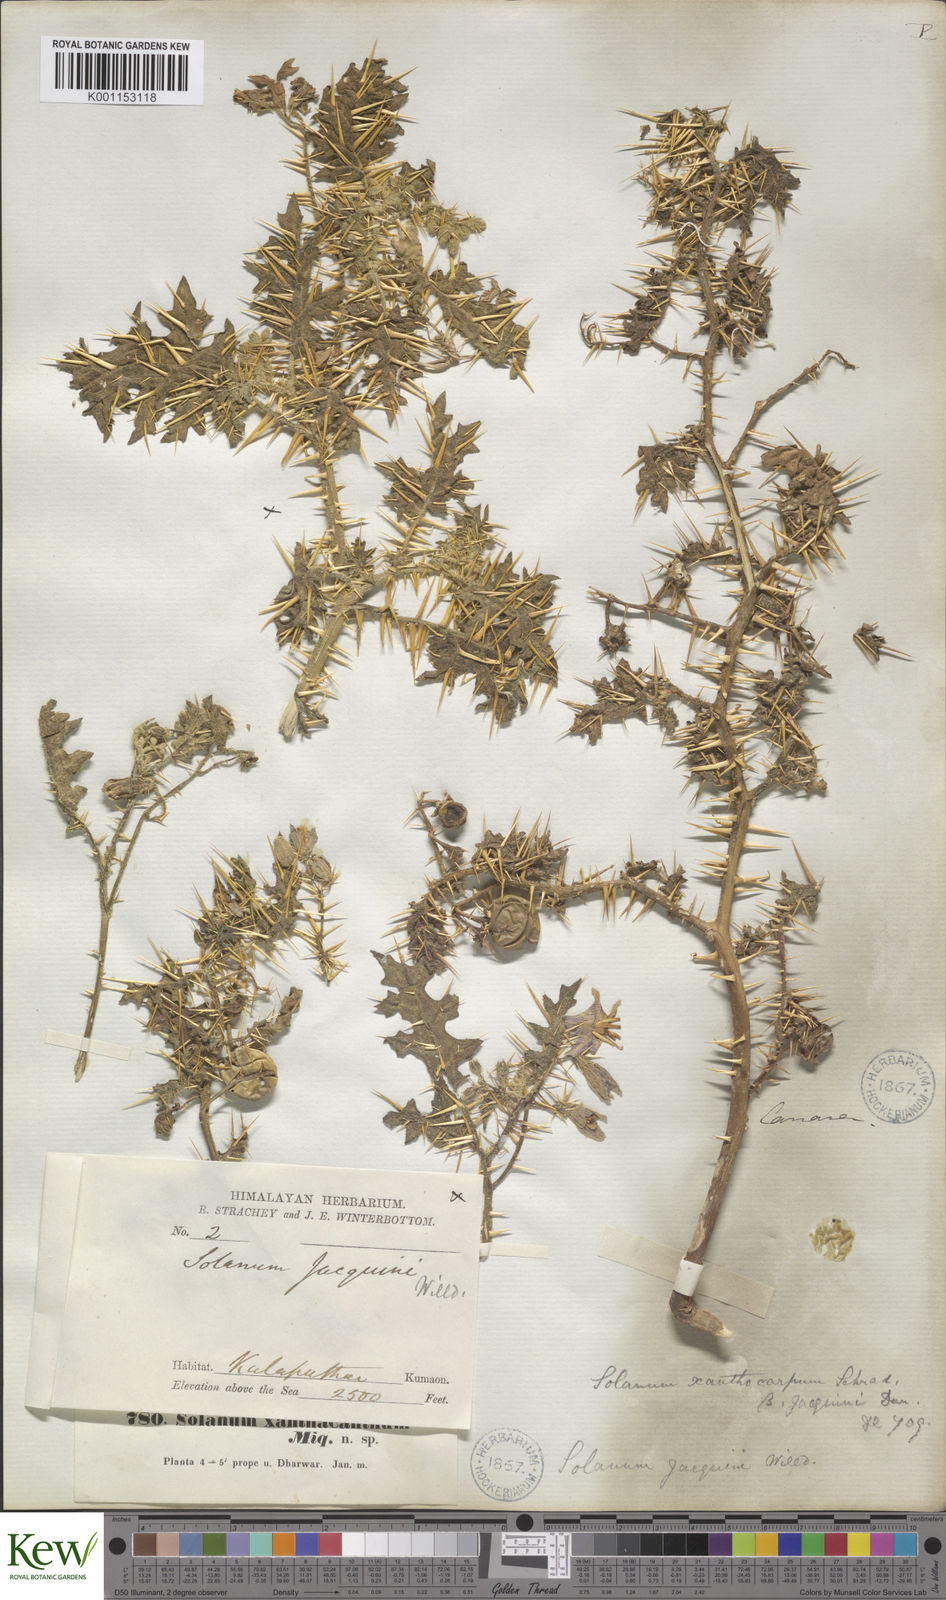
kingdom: Plantae
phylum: Tracheophyta
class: Magnoliopsida
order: Solanales
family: Solanaceae
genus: Solanum
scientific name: Solanum virginianum
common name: Surattense nightshade
